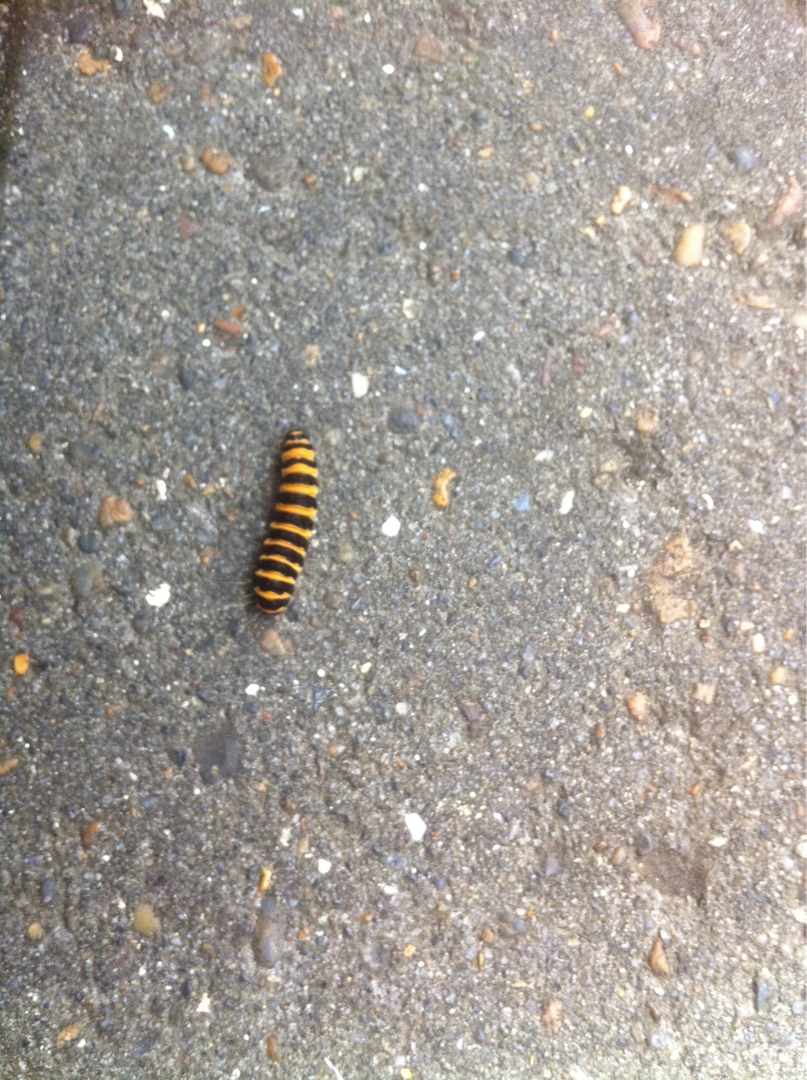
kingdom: Animalia
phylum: Arthropoda
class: Insecta
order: Lepidoptera
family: Erebidae
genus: Tyria
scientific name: Tyria jacobaeae
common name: Blodplet
